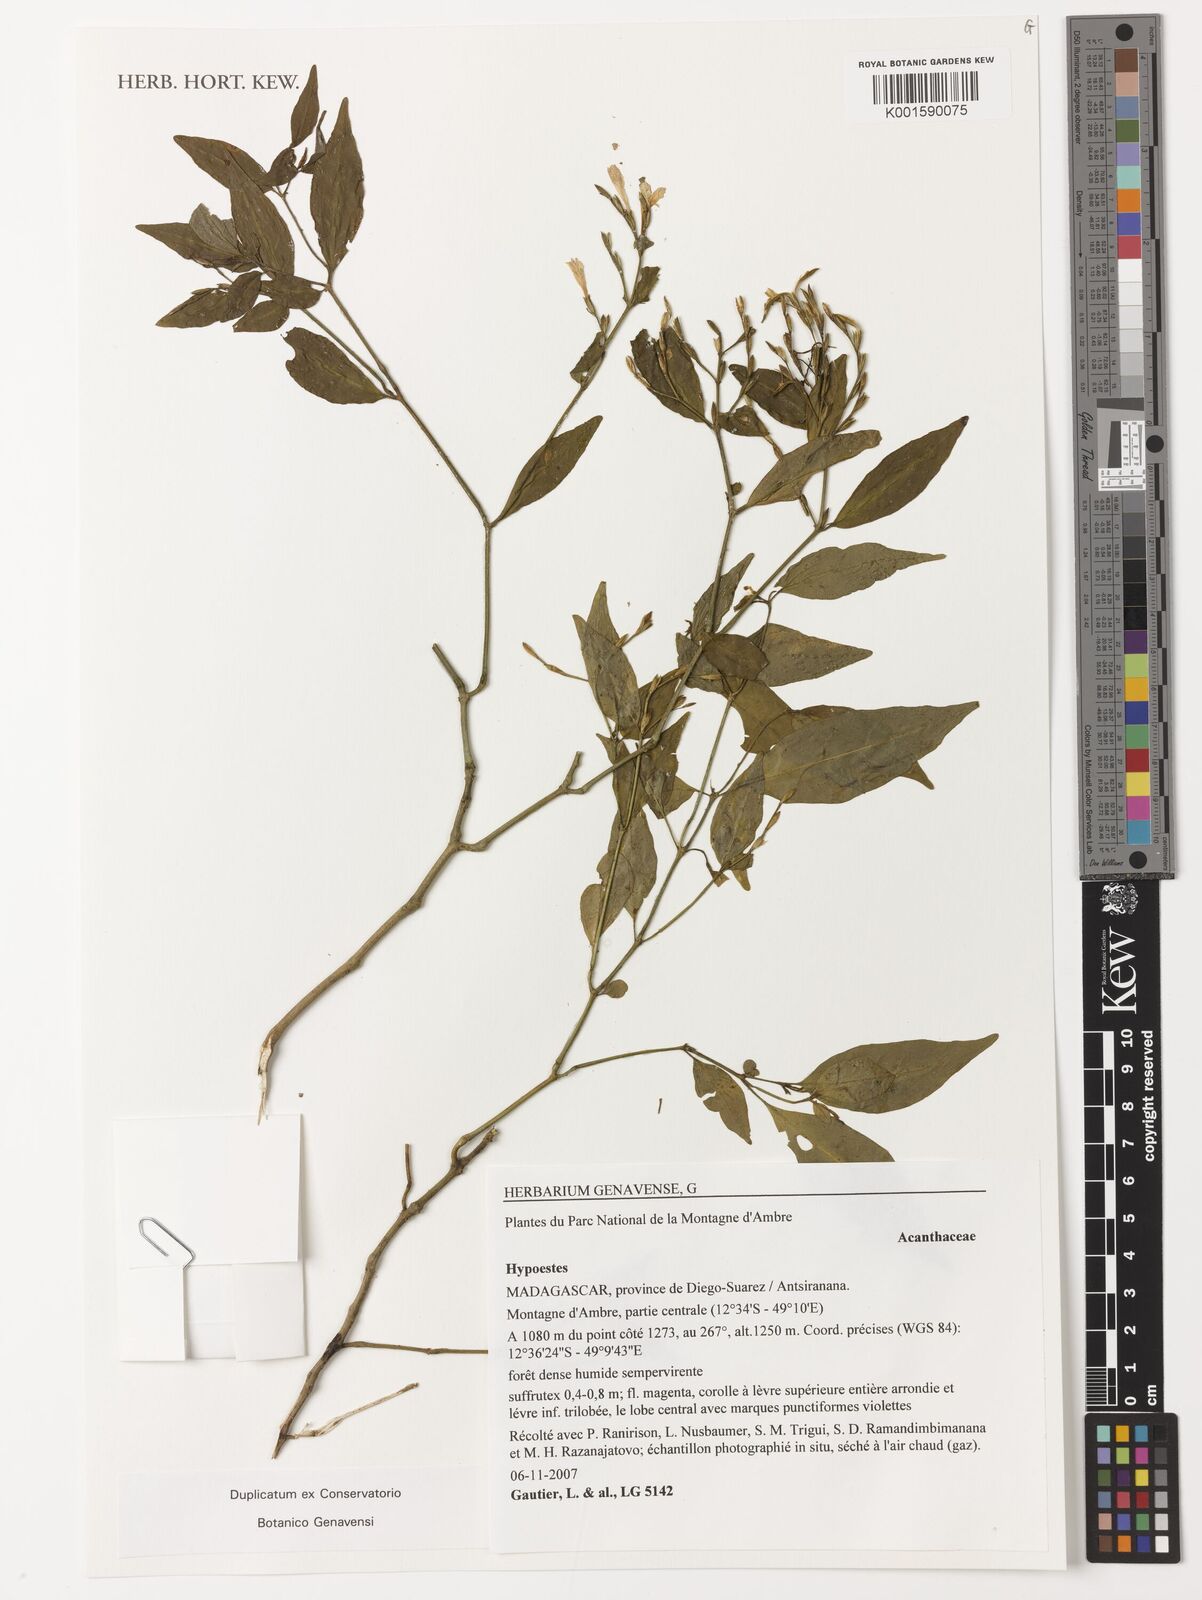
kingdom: Plantae
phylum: Tracheophyta
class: Magnoliopsida
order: Lamiales
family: Acanthaceae
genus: Hypoestes
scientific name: Hypoestes
